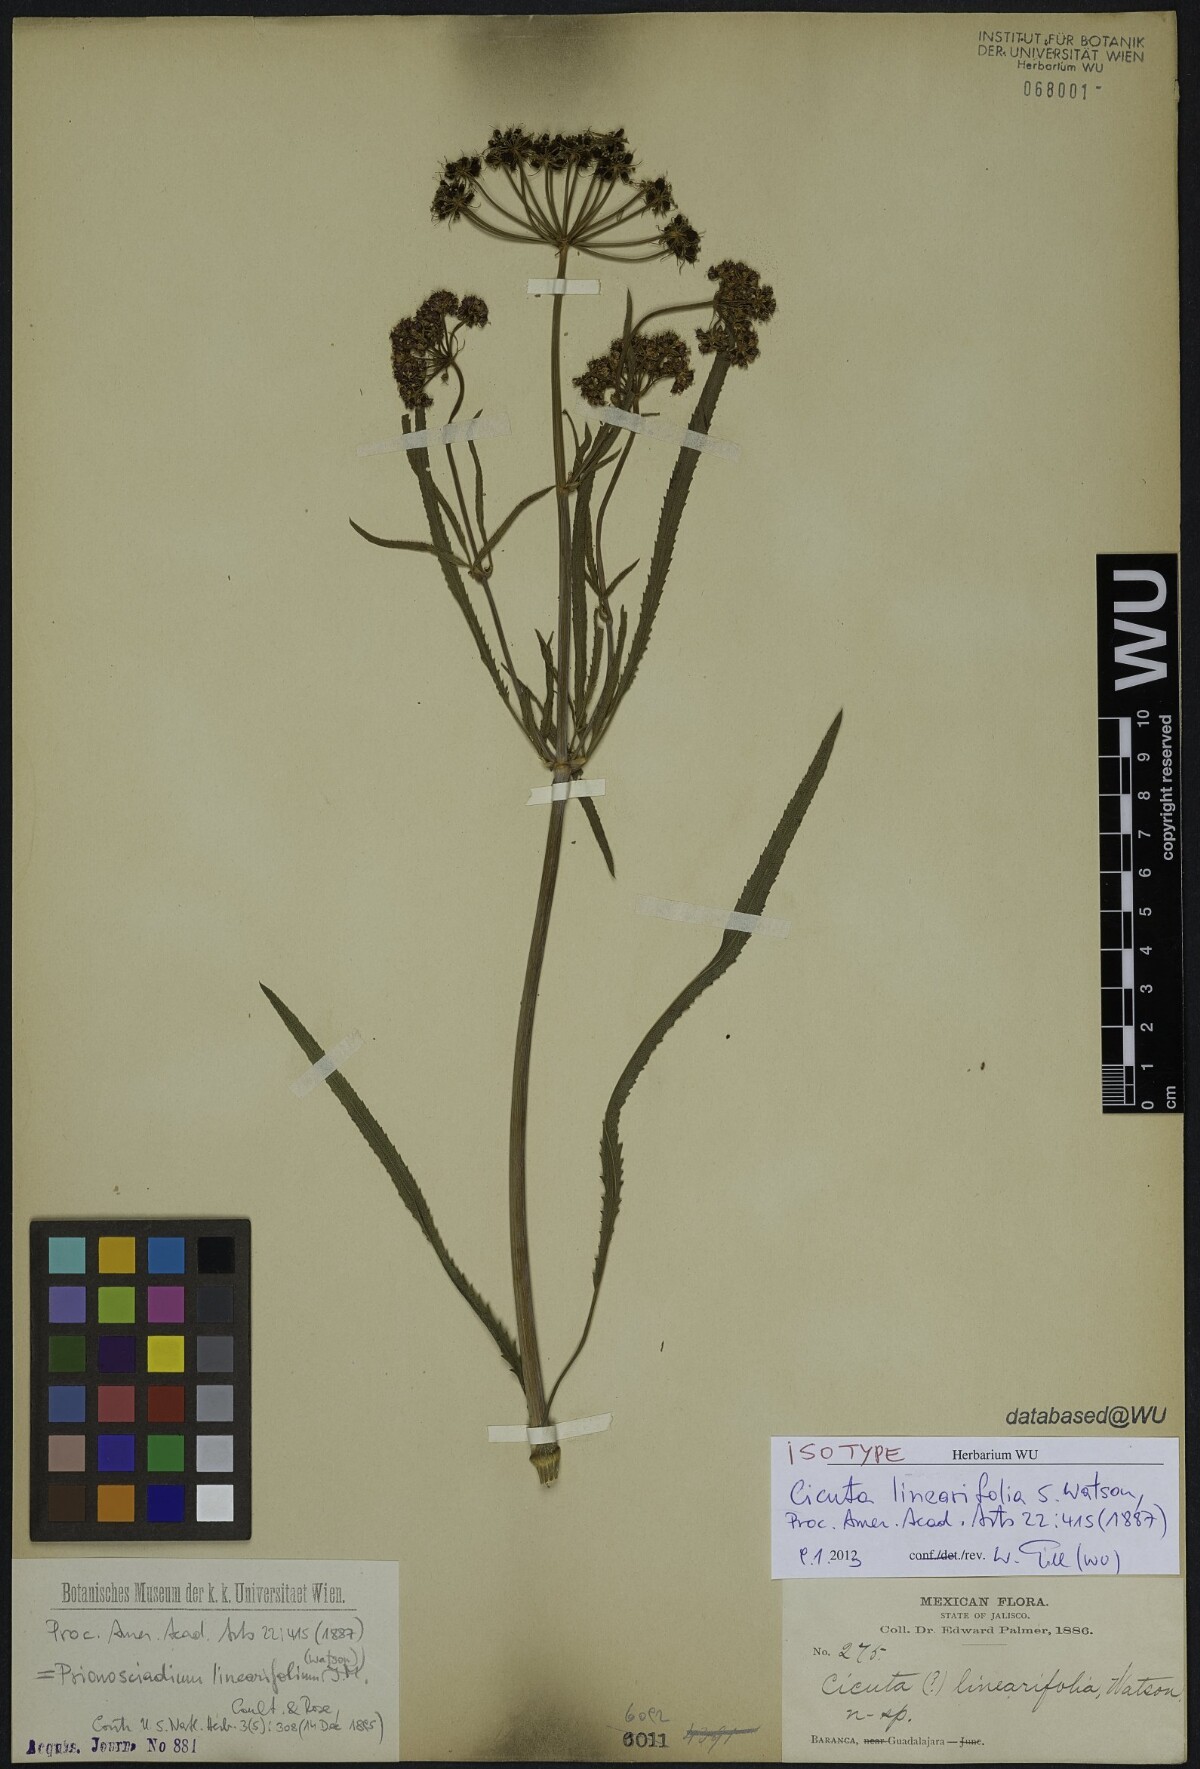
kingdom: Plantae
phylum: Tracheophyta
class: Magnoliopsida
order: Apiales
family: Apiaceae
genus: Prionosciadium
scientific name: Prionosciadium linearifolium
